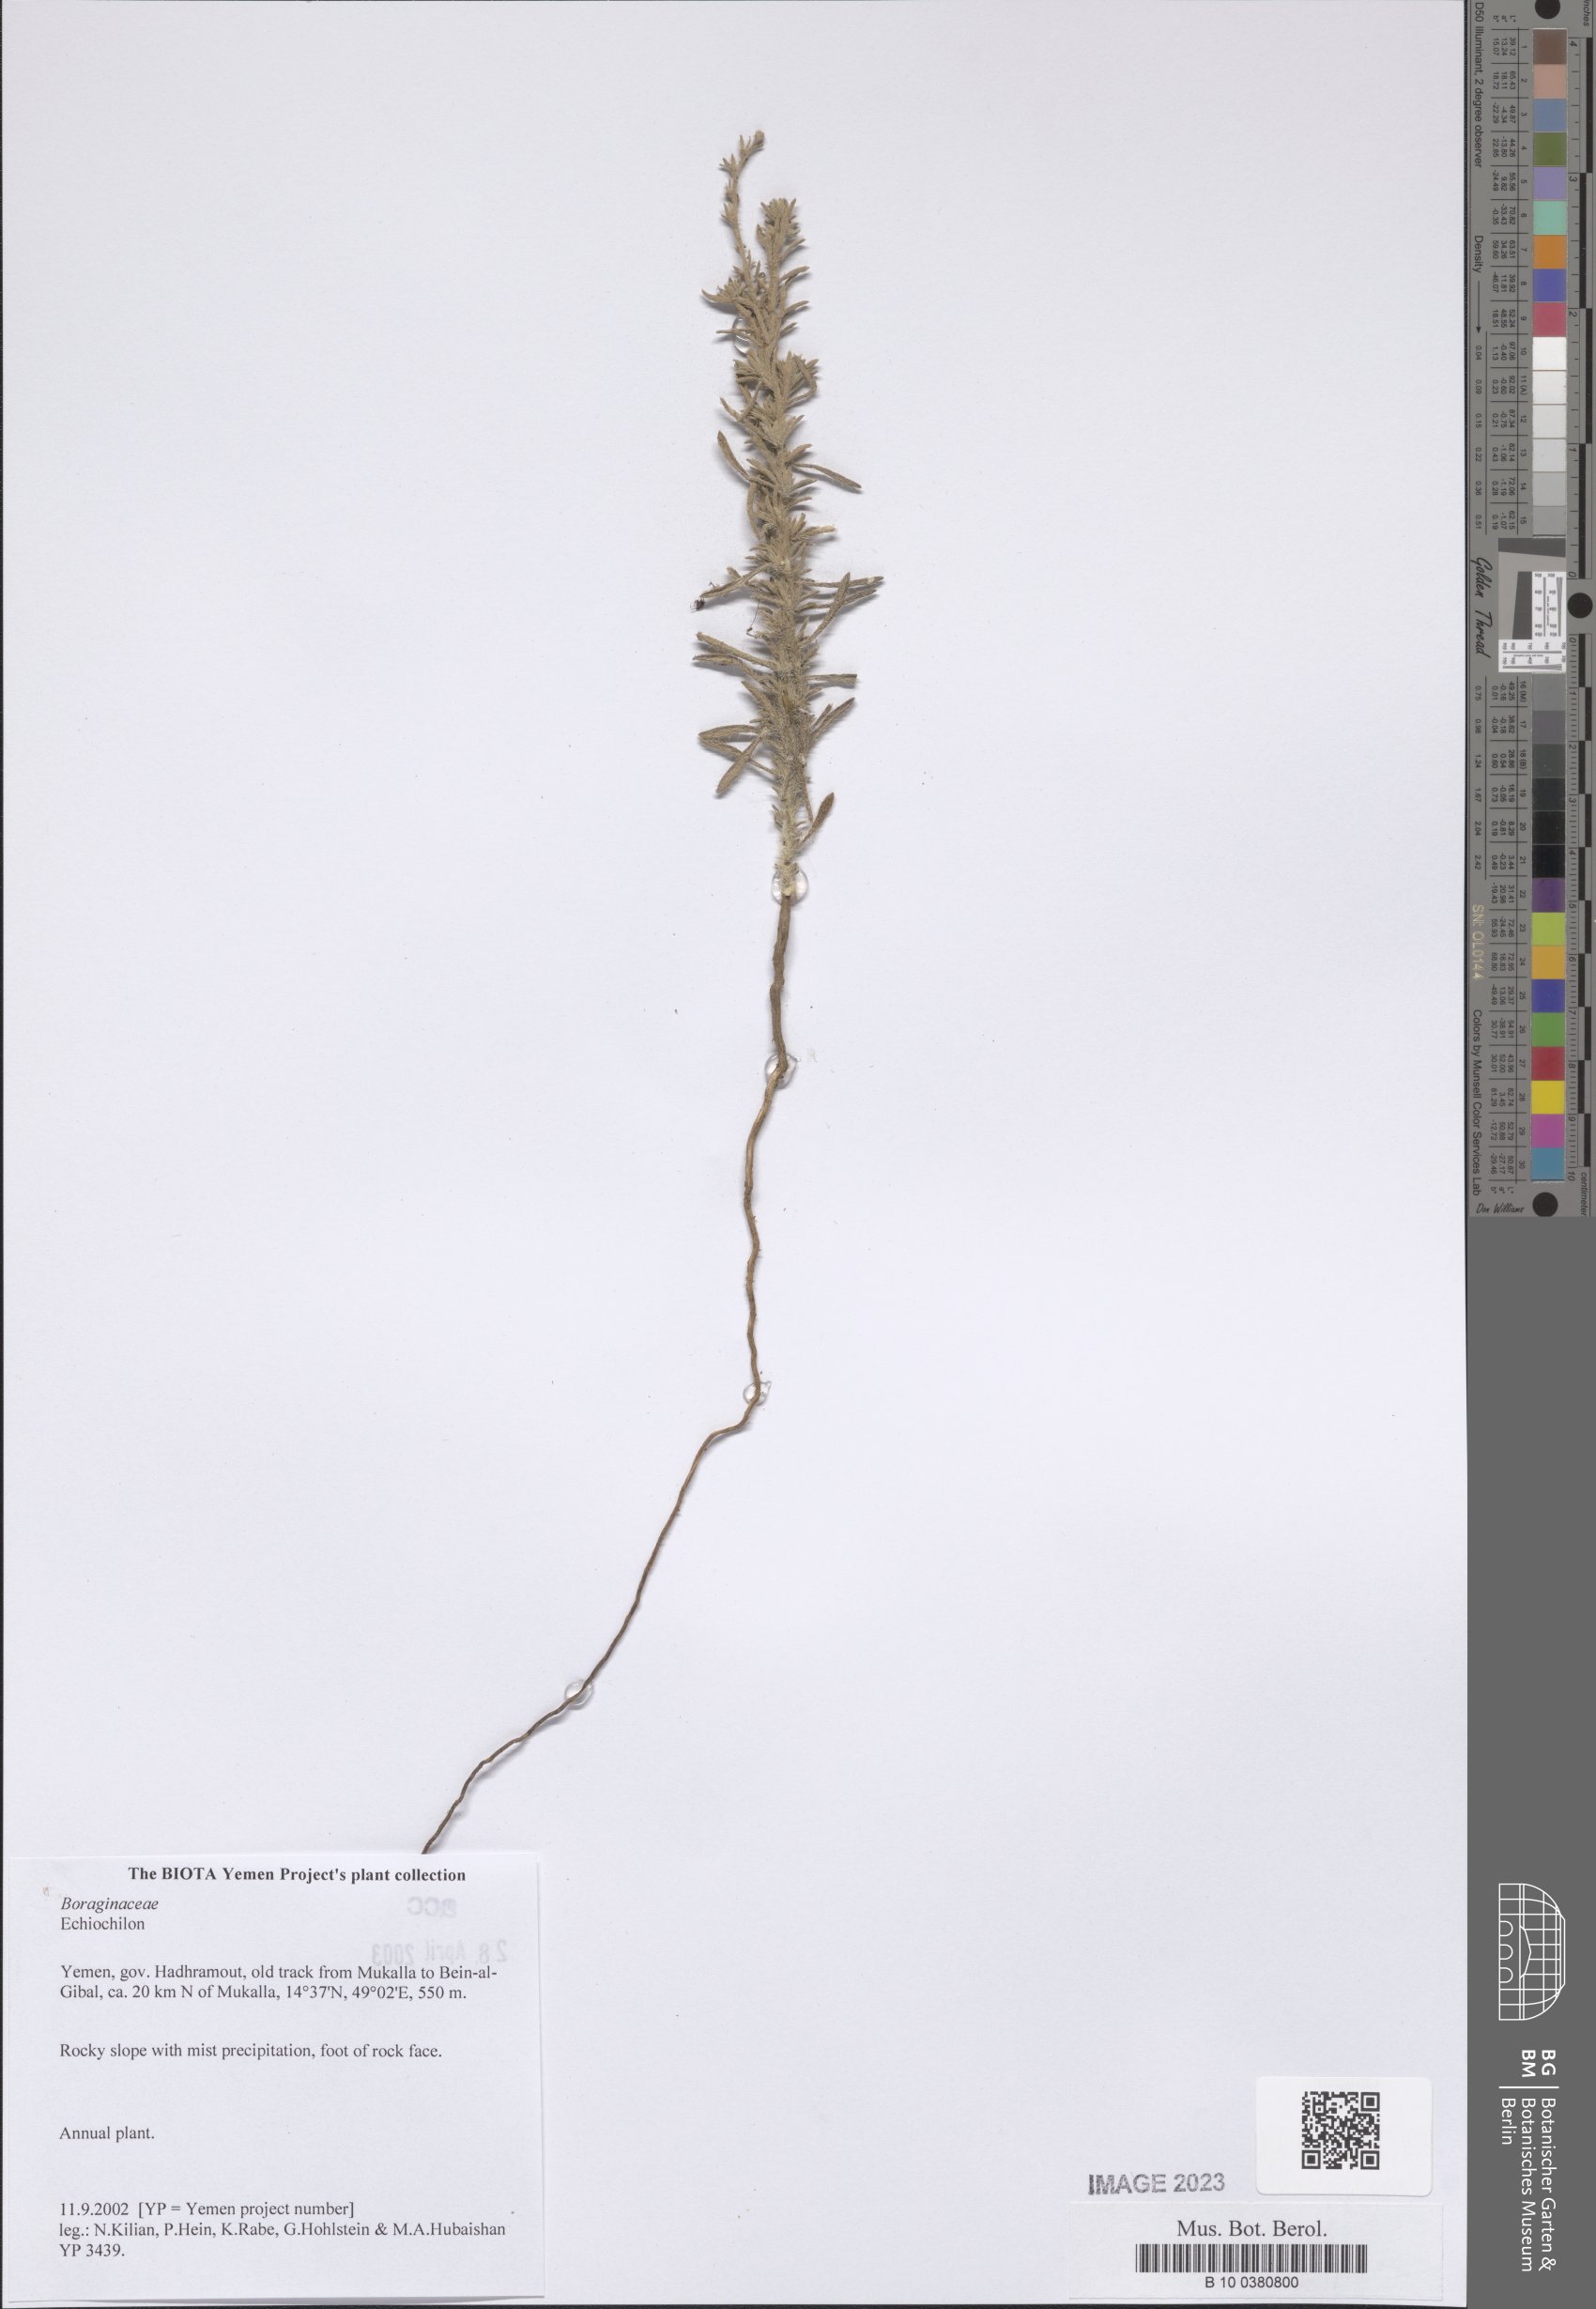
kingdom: Plantae
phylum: Tracheophyta
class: Magnoliopsida
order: Boraginales
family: Boraginaceae
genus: Echiochilon
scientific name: Echiochilon
